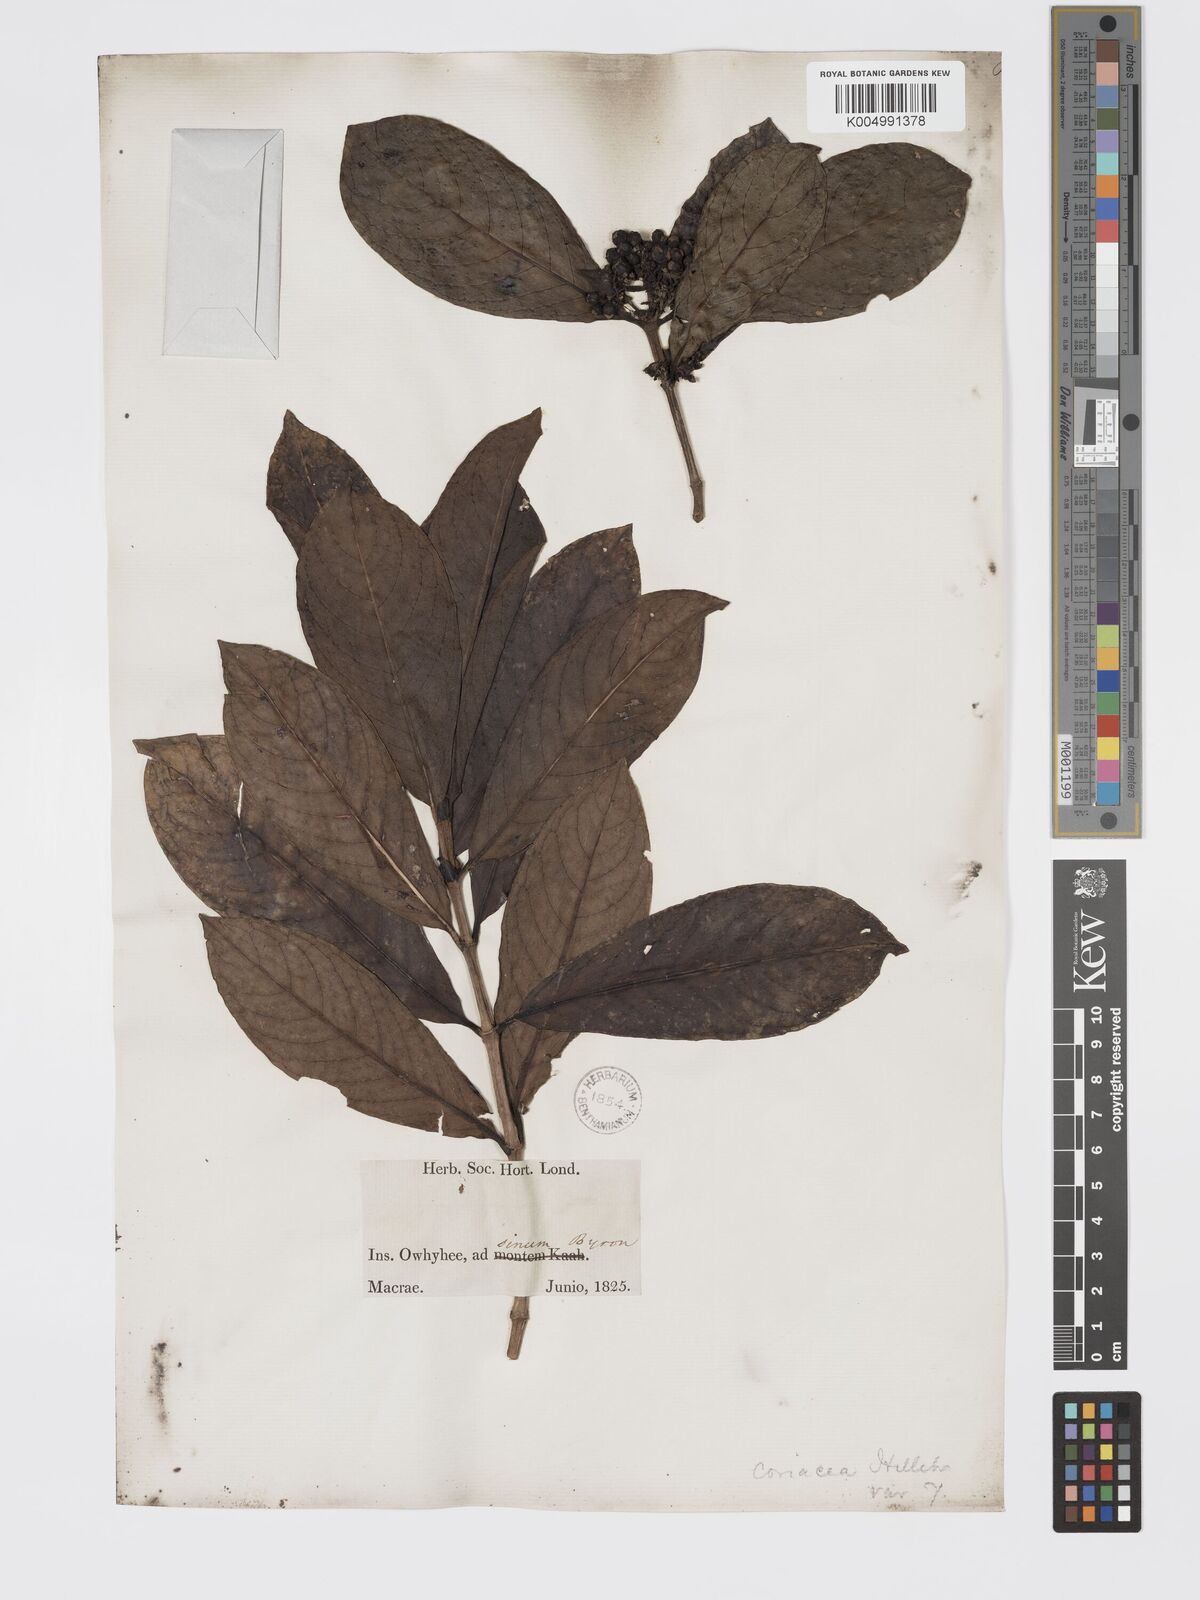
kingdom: Plantae
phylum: Tracheophyta
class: Magnoliopsida
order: Gentianales
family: Rubiaceae
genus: Kadua
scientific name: Kadua coriacea
